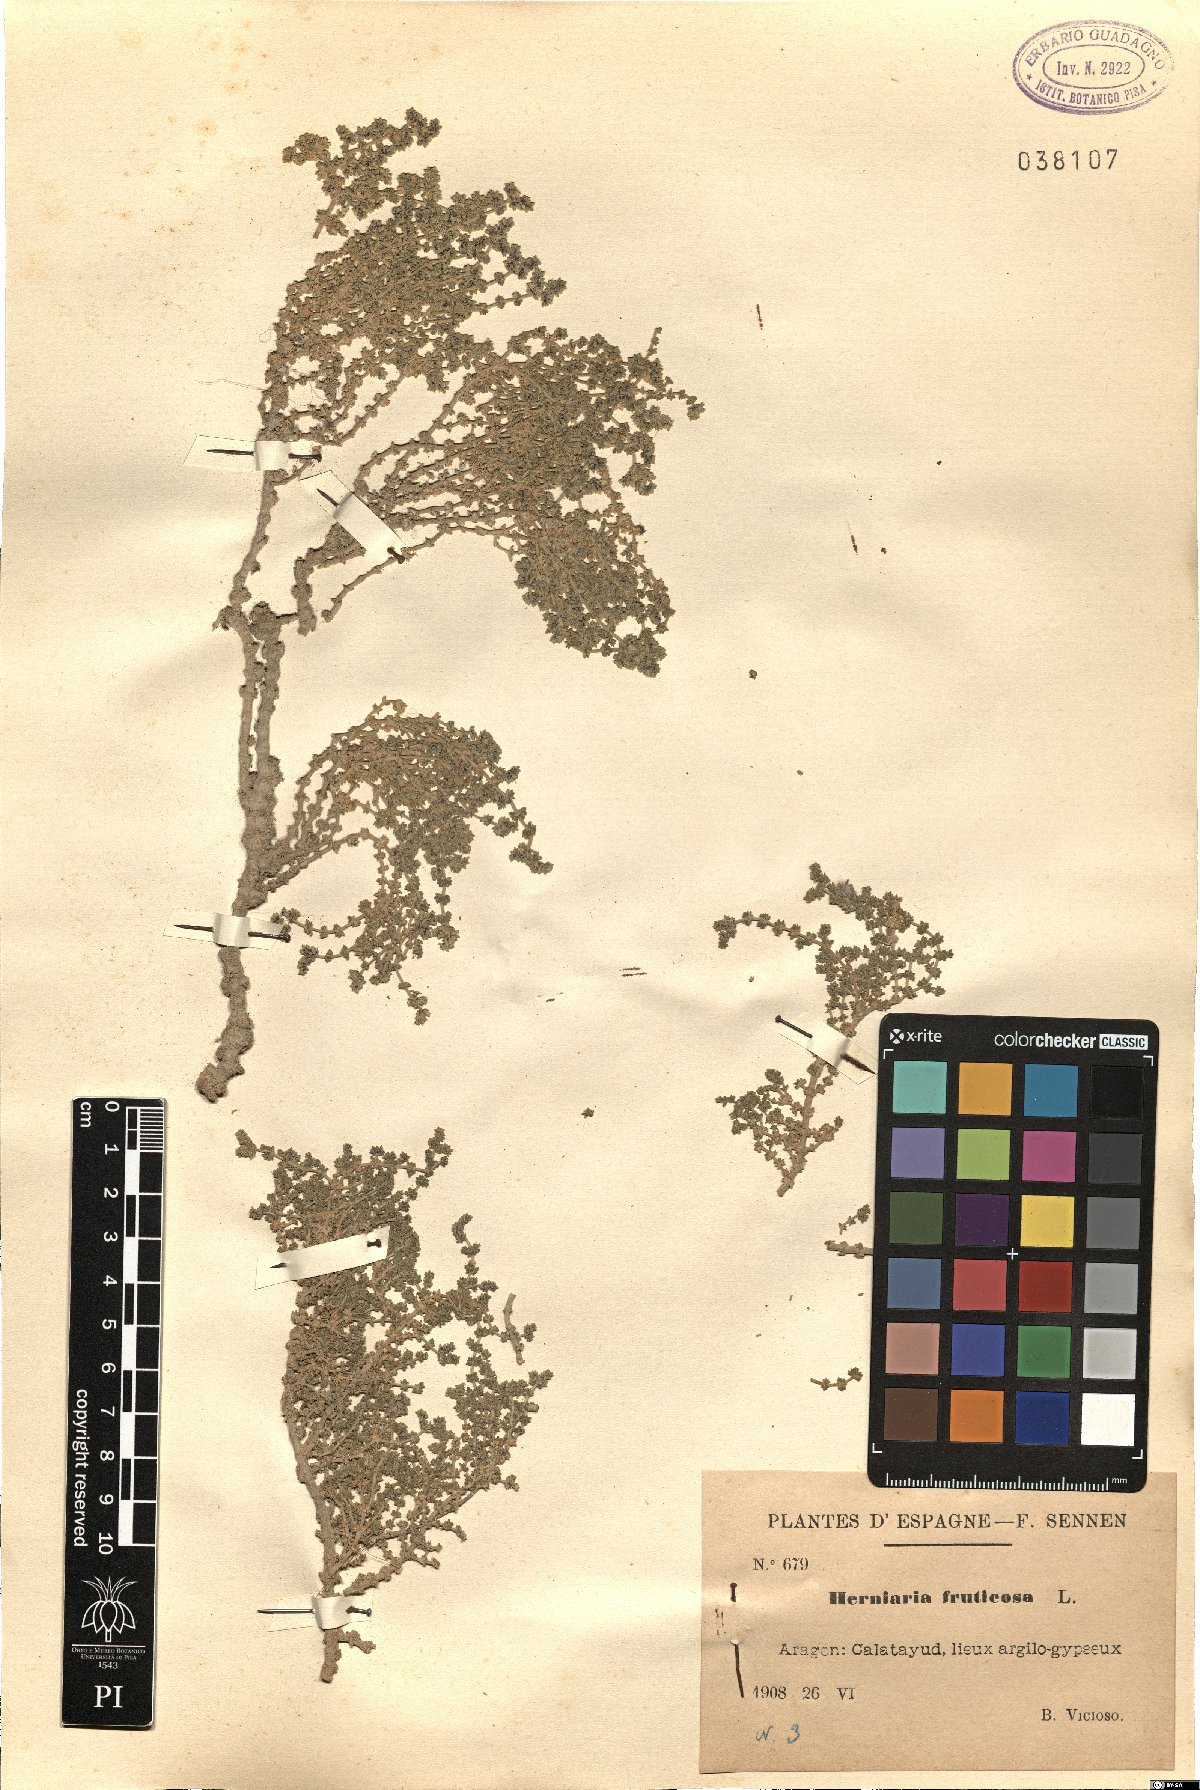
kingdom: Plantae
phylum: Tracheophyta
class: Magnoliopsida
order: Caryophyllales
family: Caryophyllaceae
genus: Herniaria
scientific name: Herniaria fruticosa
